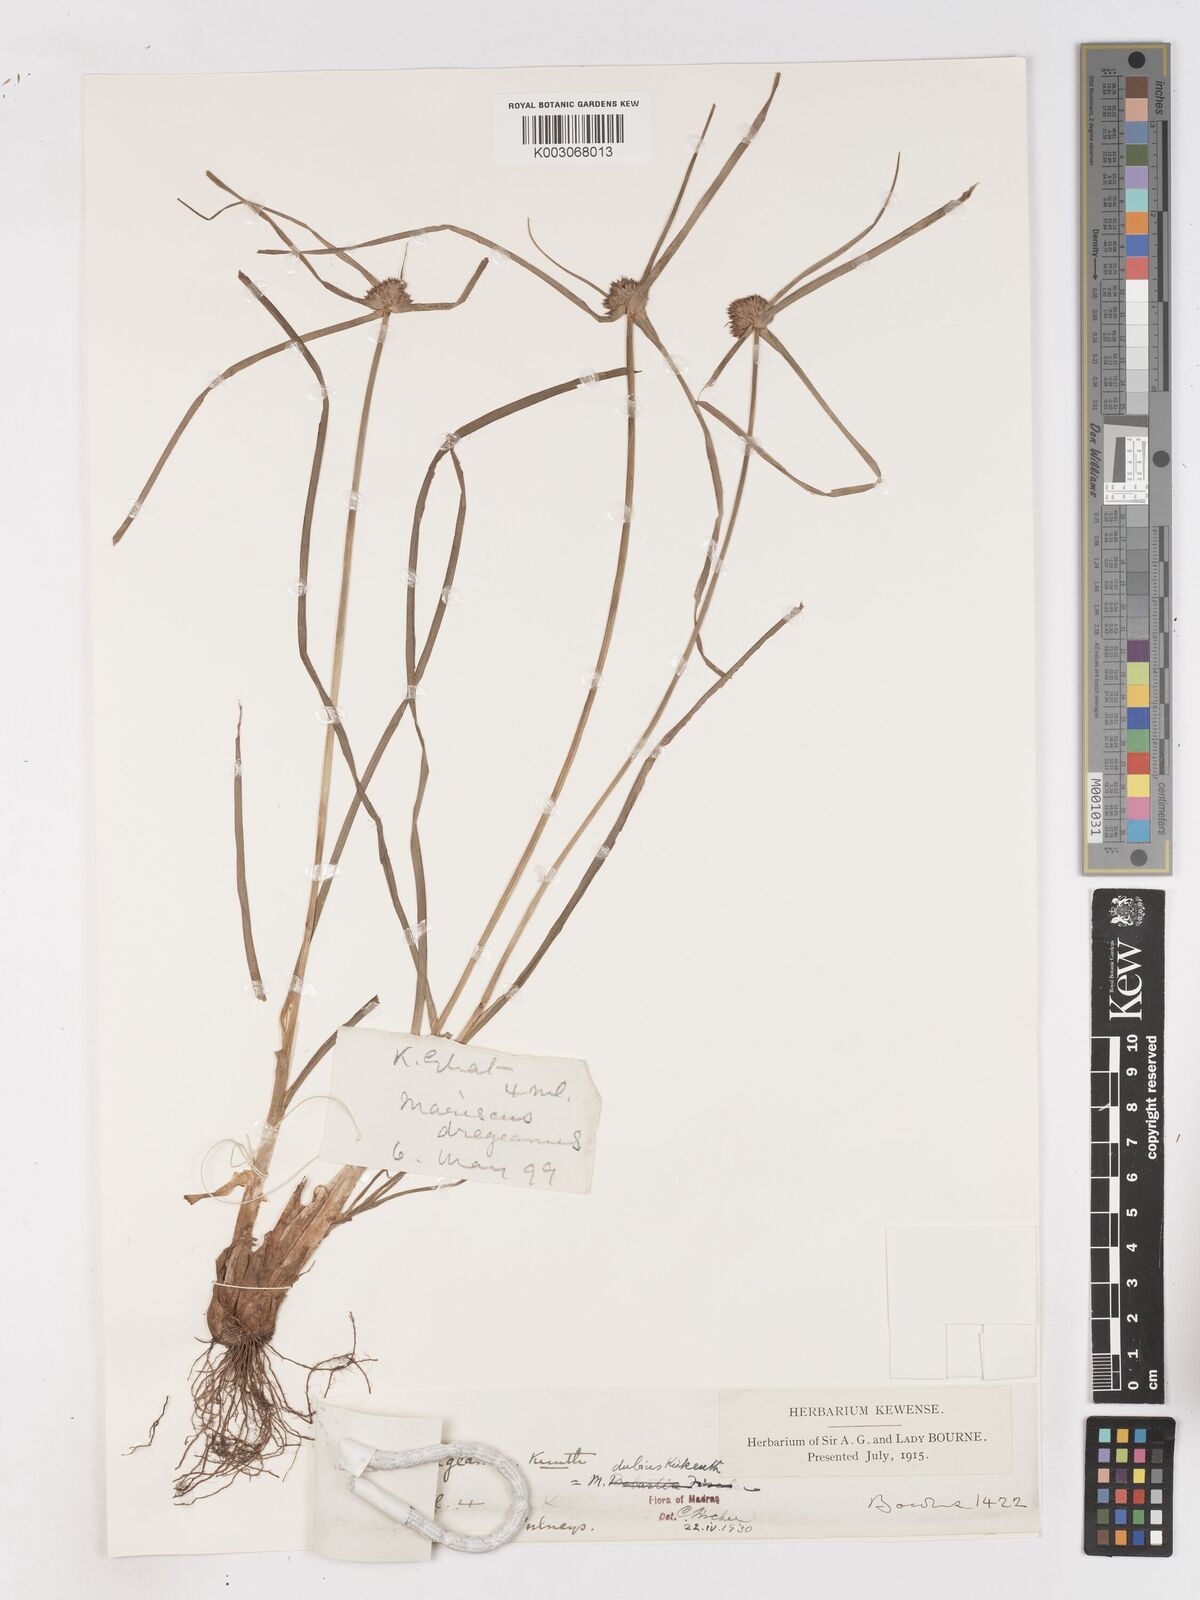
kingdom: Plantae
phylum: Tracheophyta
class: Liliopsida
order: Poales
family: Cyperaceae
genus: Cyperus
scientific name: Cyperus dubius
